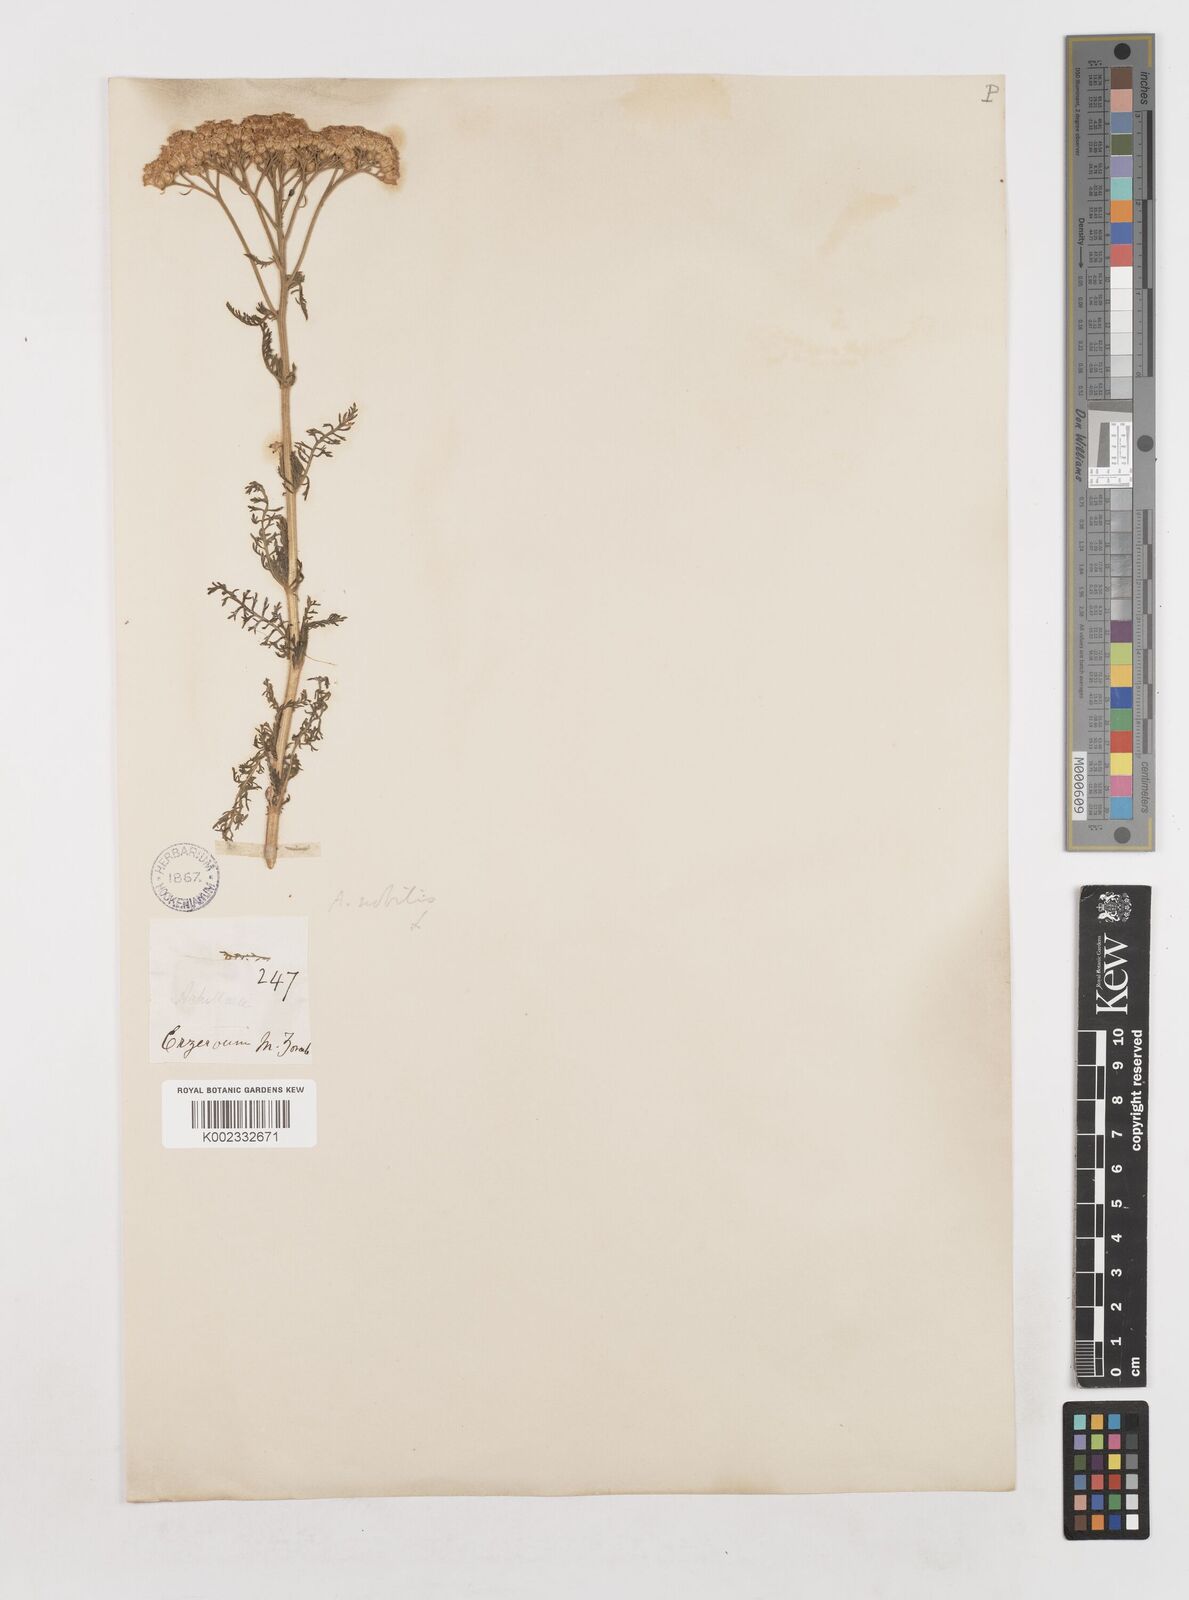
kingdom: Plantae
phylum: Tracheophyta
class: Magnoliopsida
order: Asterales
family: Asteraceae
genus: Achillea
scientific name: Achillea nobilis
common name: Noble yarrow
